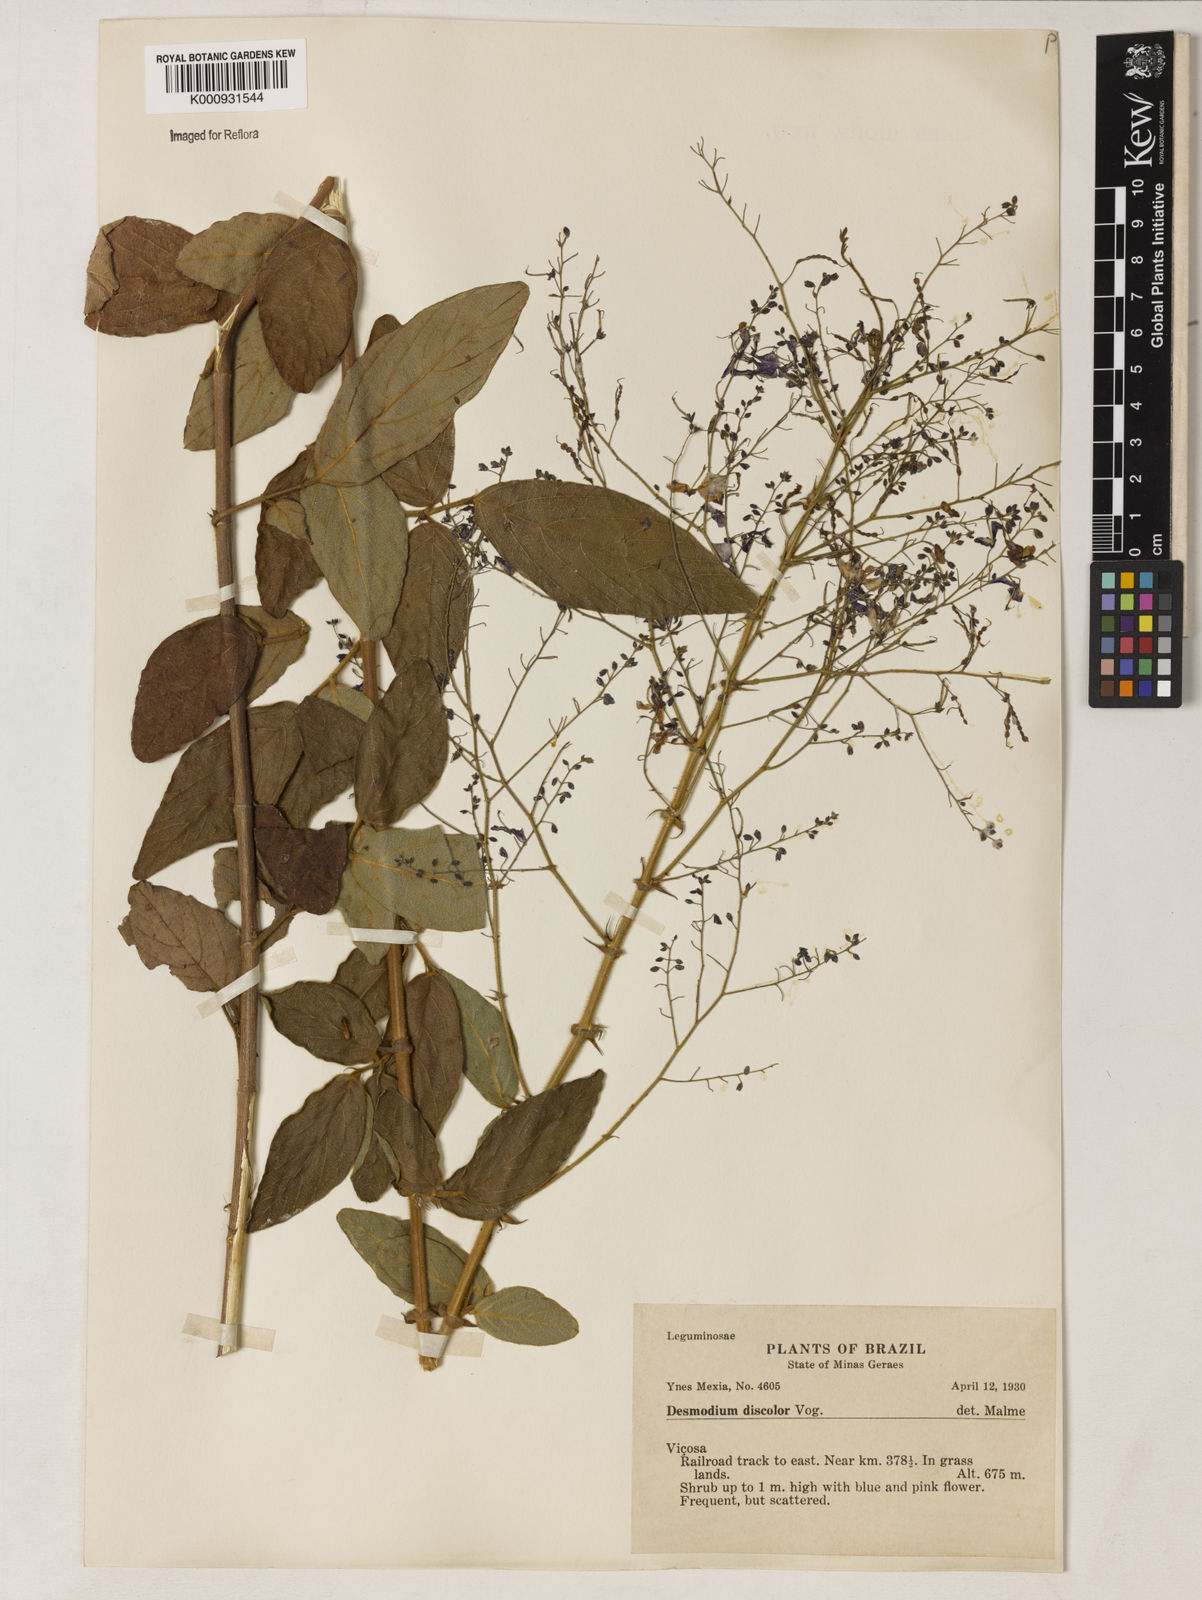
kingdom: Plantae
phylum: Tracheophyta
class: Magnoliopsida
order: Fabales
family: Fabaceae
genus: Desmodium
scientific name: Desmodium subsecundum
